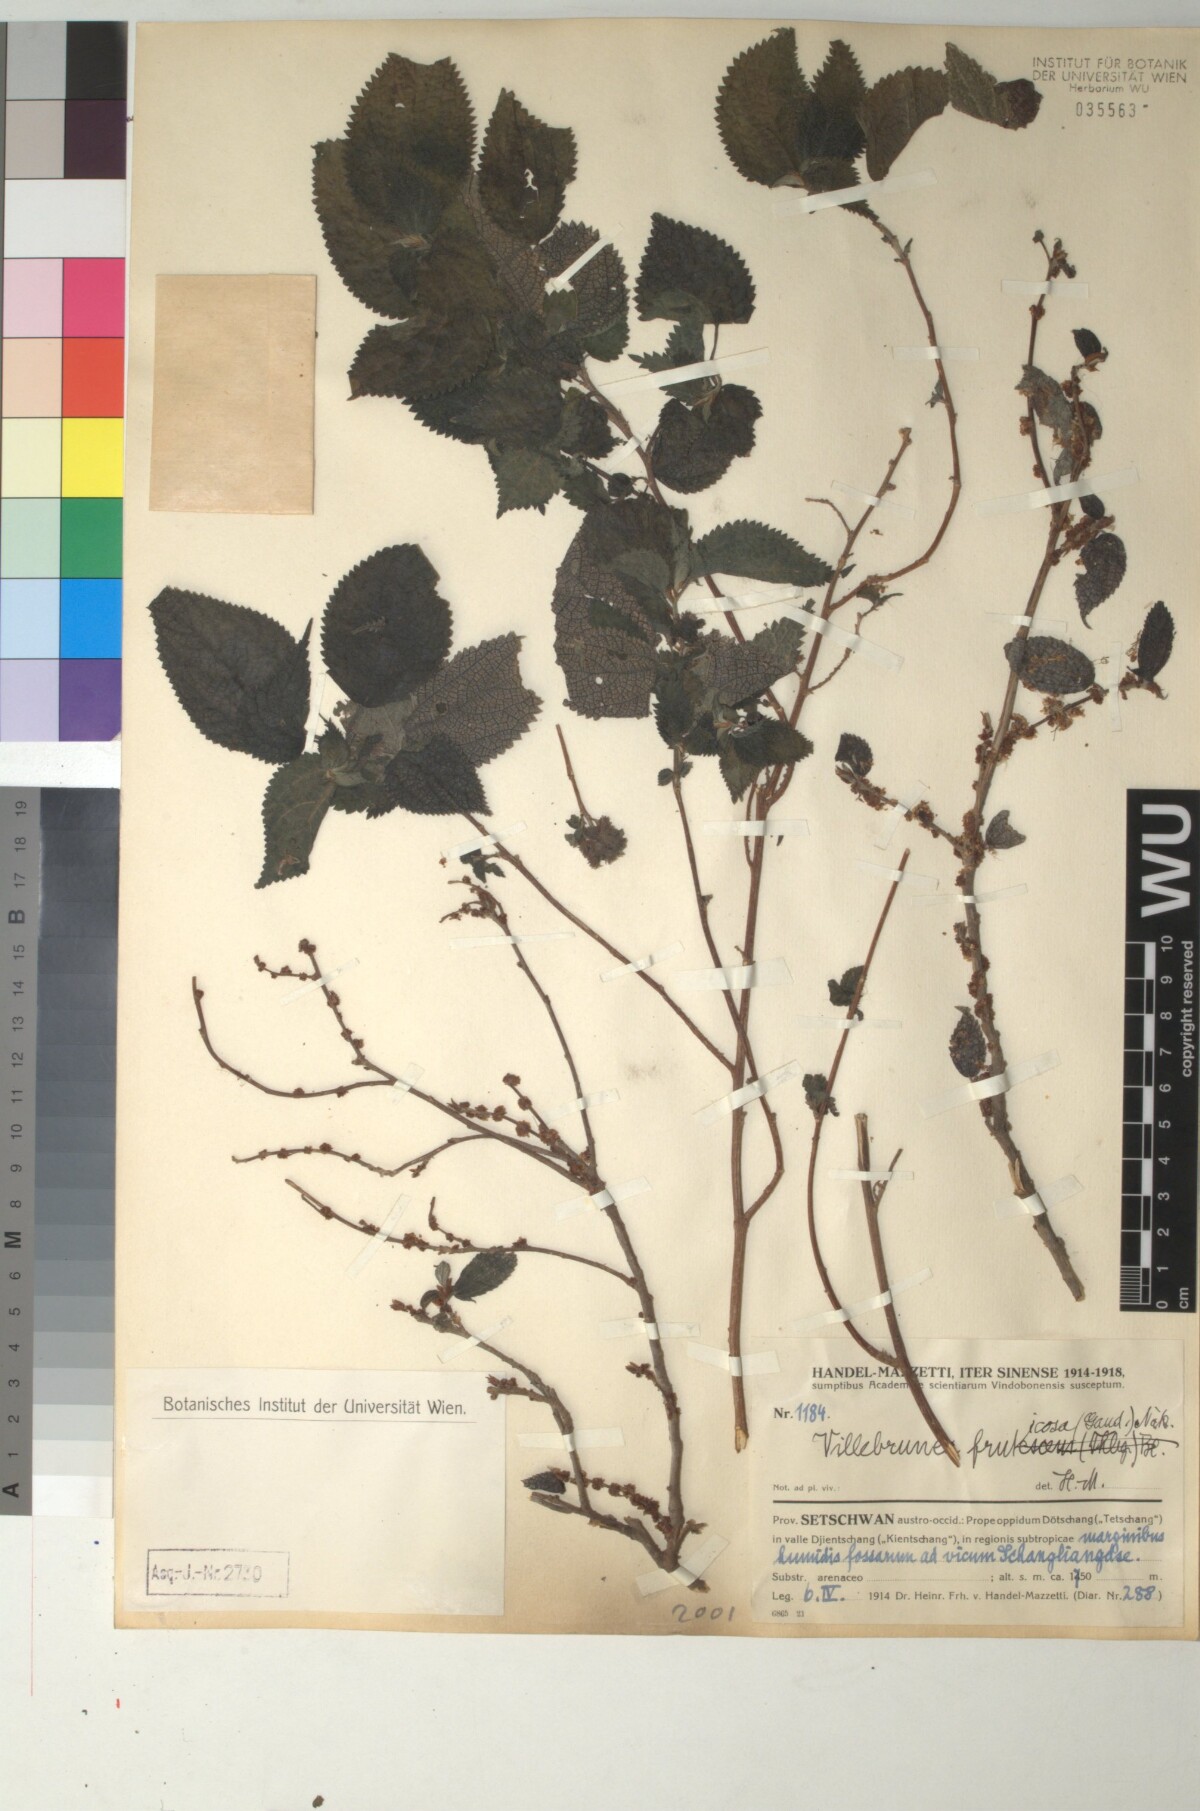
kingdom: Plantae
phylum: Tracheophyta
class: Magnoliopsida
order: Rosales
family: Urticaceae
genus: Oreocnide
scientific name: Oreocnide frutescens
